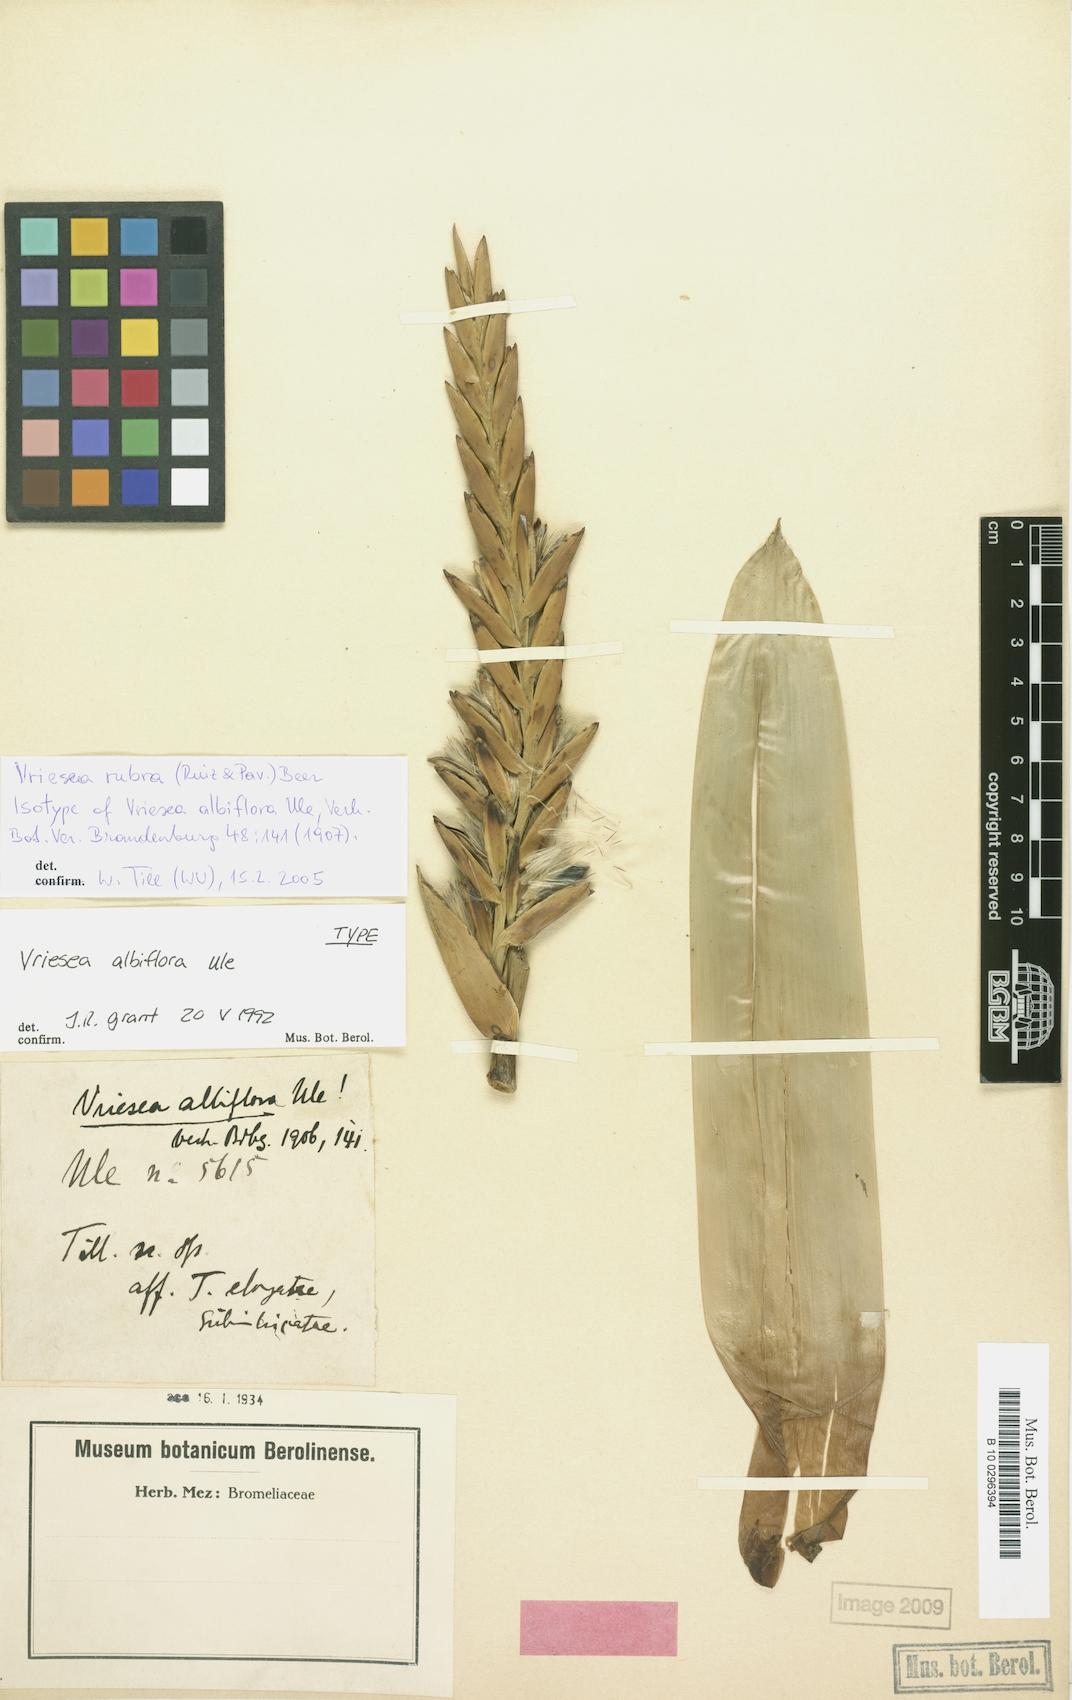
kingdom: Plantae
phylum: Tracheophyta
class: Liliopsida
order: Poales
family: Bromeliaceae
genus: Vriesea
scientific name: Vriesea rubra
